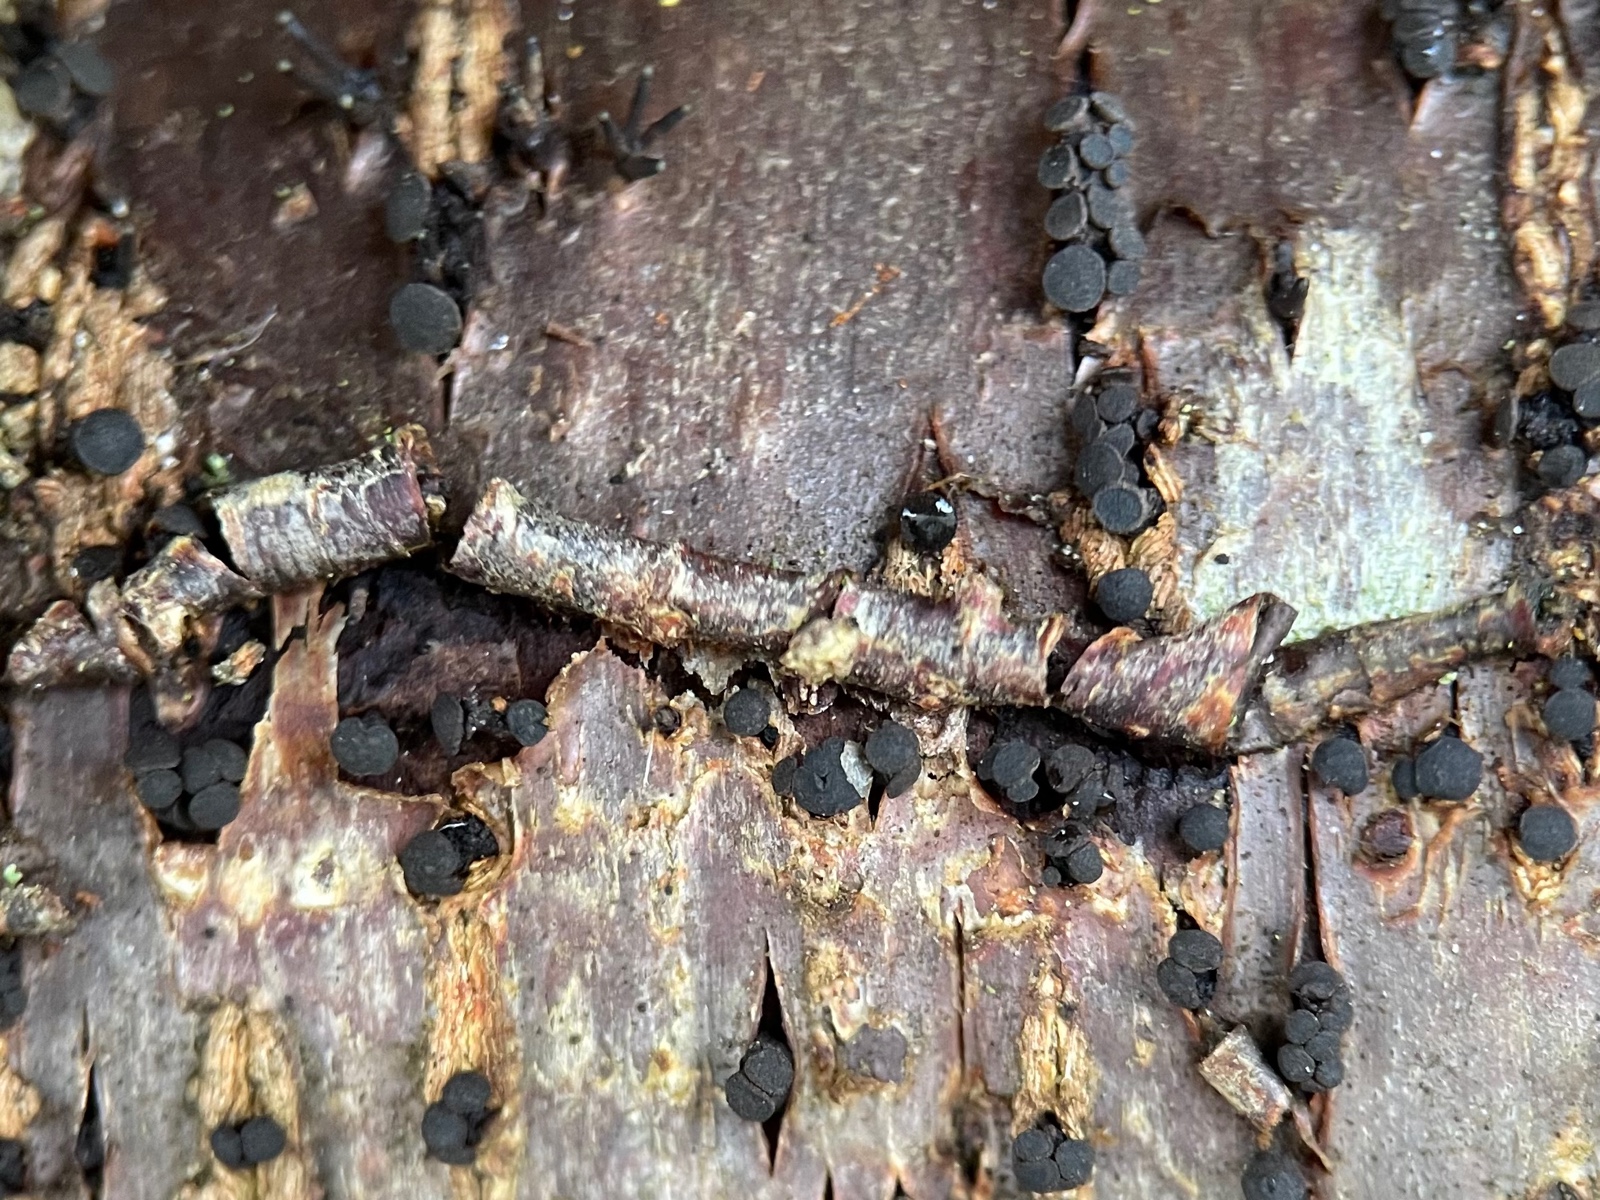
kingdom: Fungi
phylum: Ascomycota
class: Leotiomycetes
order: Helotiales
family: Dermateaceae
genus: Dermea
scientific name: Dermea
